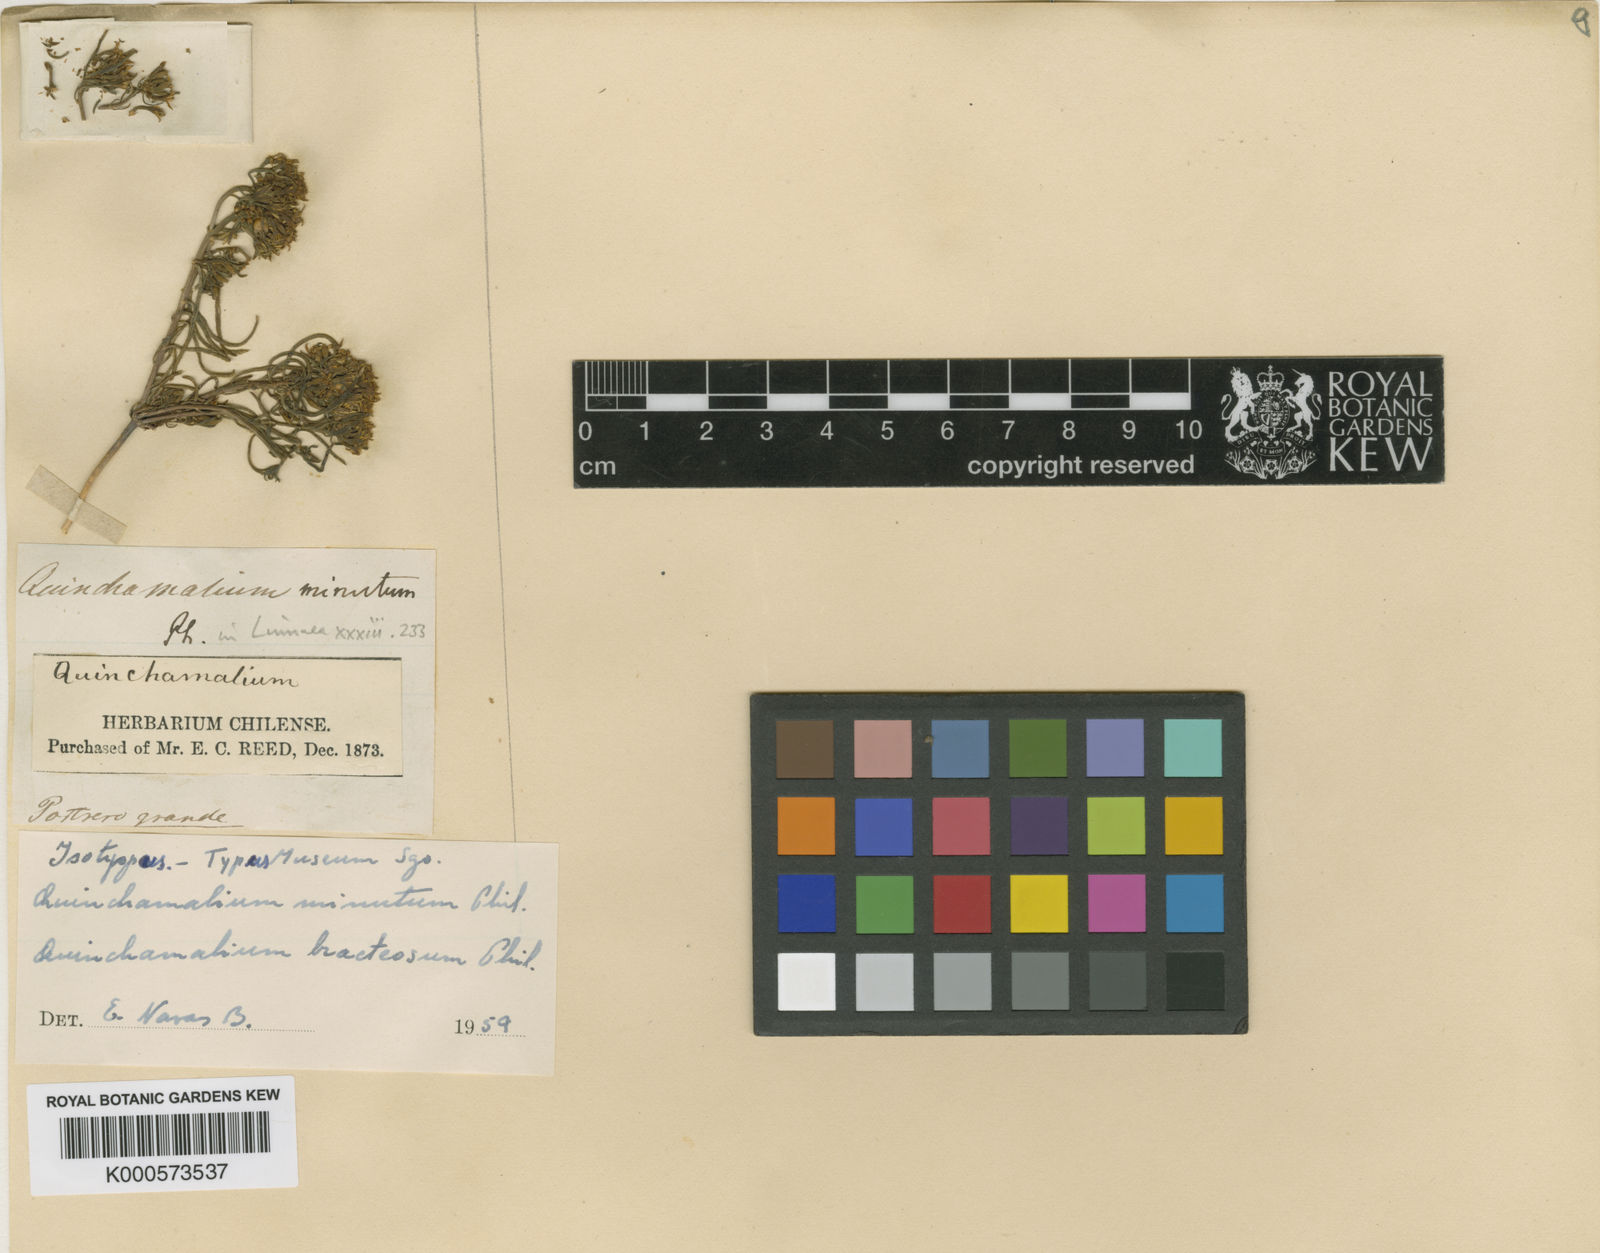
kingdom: Plantae
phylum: Tracheophyta
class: Magnoliopsida
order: Santalales
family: Schoepfiaceae
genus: Quinchamalium
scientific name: Quinchamalium chilense
